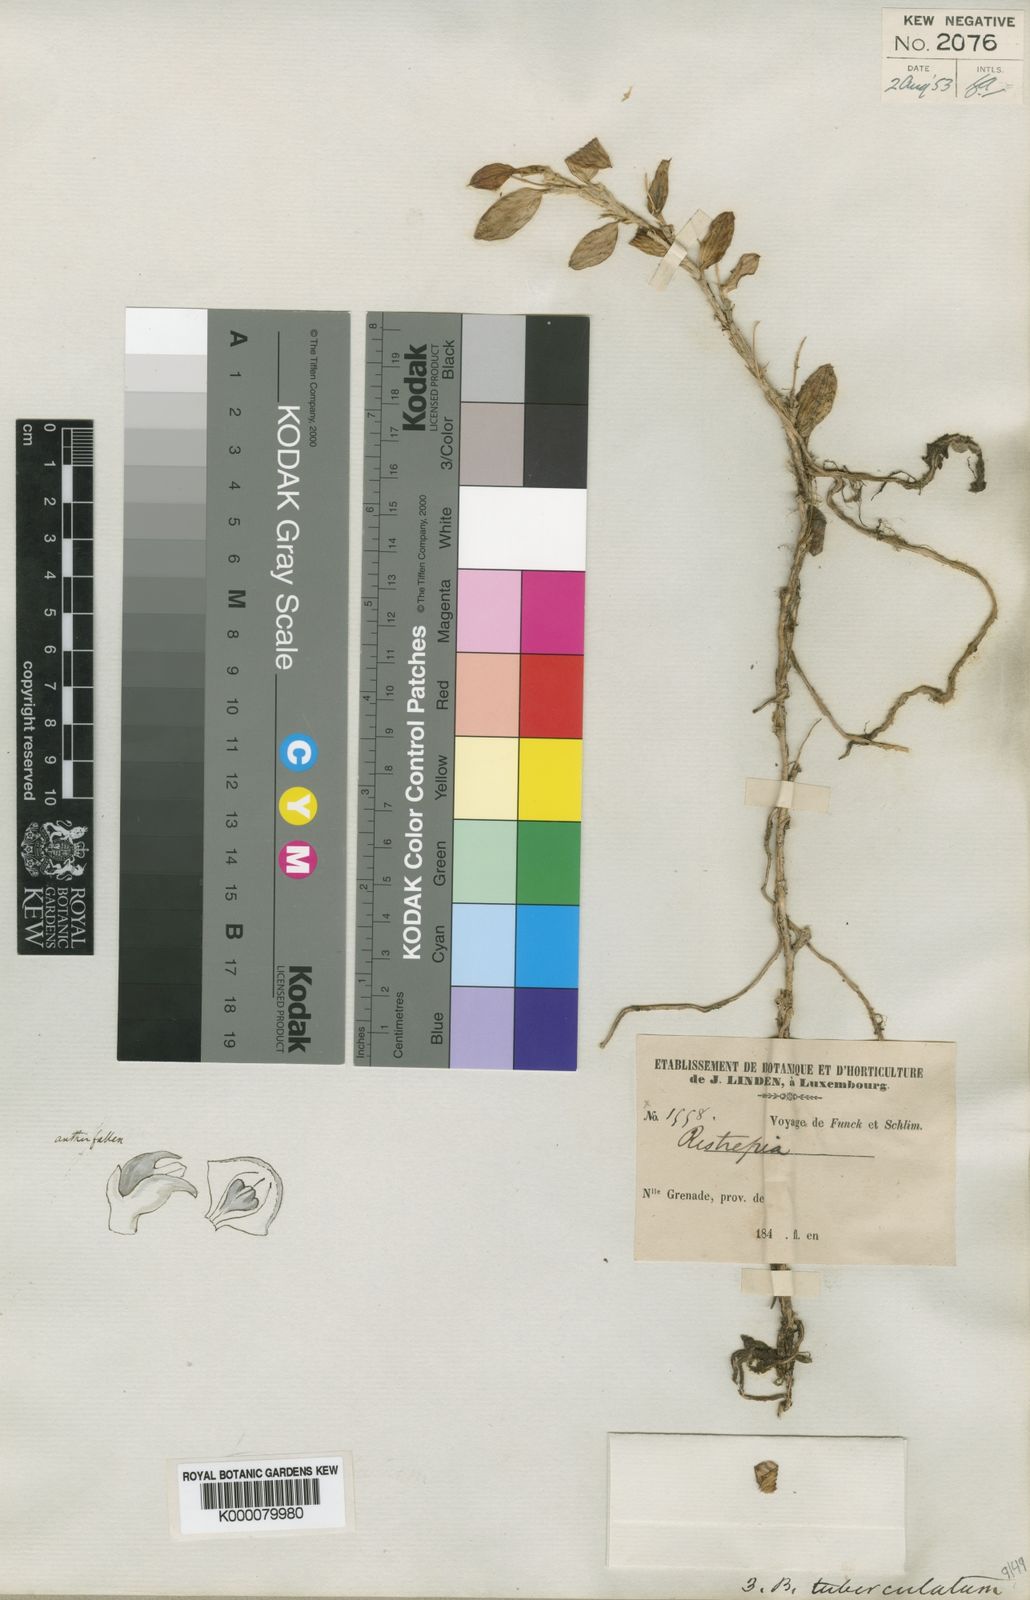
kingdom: Plantae
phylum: Tracheophyta
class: Liliopsida
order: Asparagales
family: Orchidaceae
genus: Brachionidium
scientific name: Brachionidium tuberculatum
